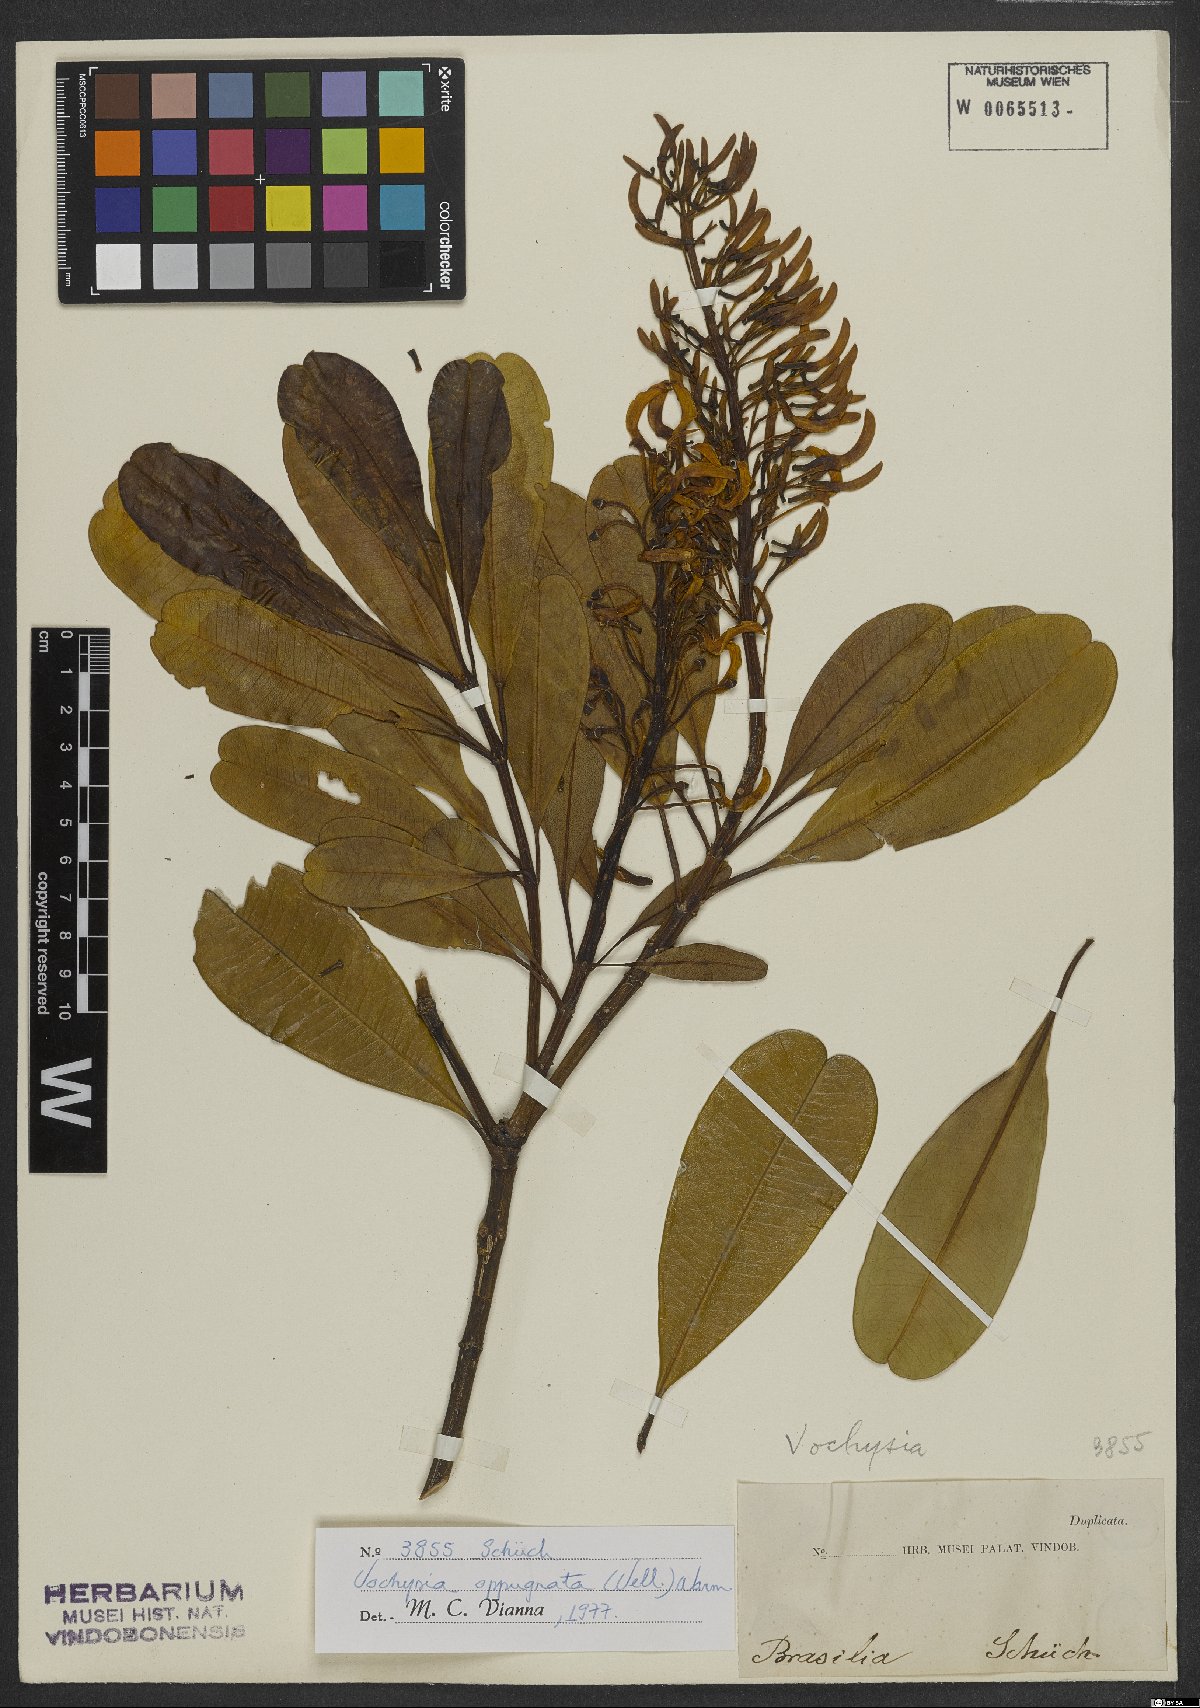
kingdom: Plantae
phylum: Tracheophyta
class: Magnoliopsida
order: Myrtales
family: Vochysiaceae
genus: Vochysia
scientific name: Vochysia oppugnata
